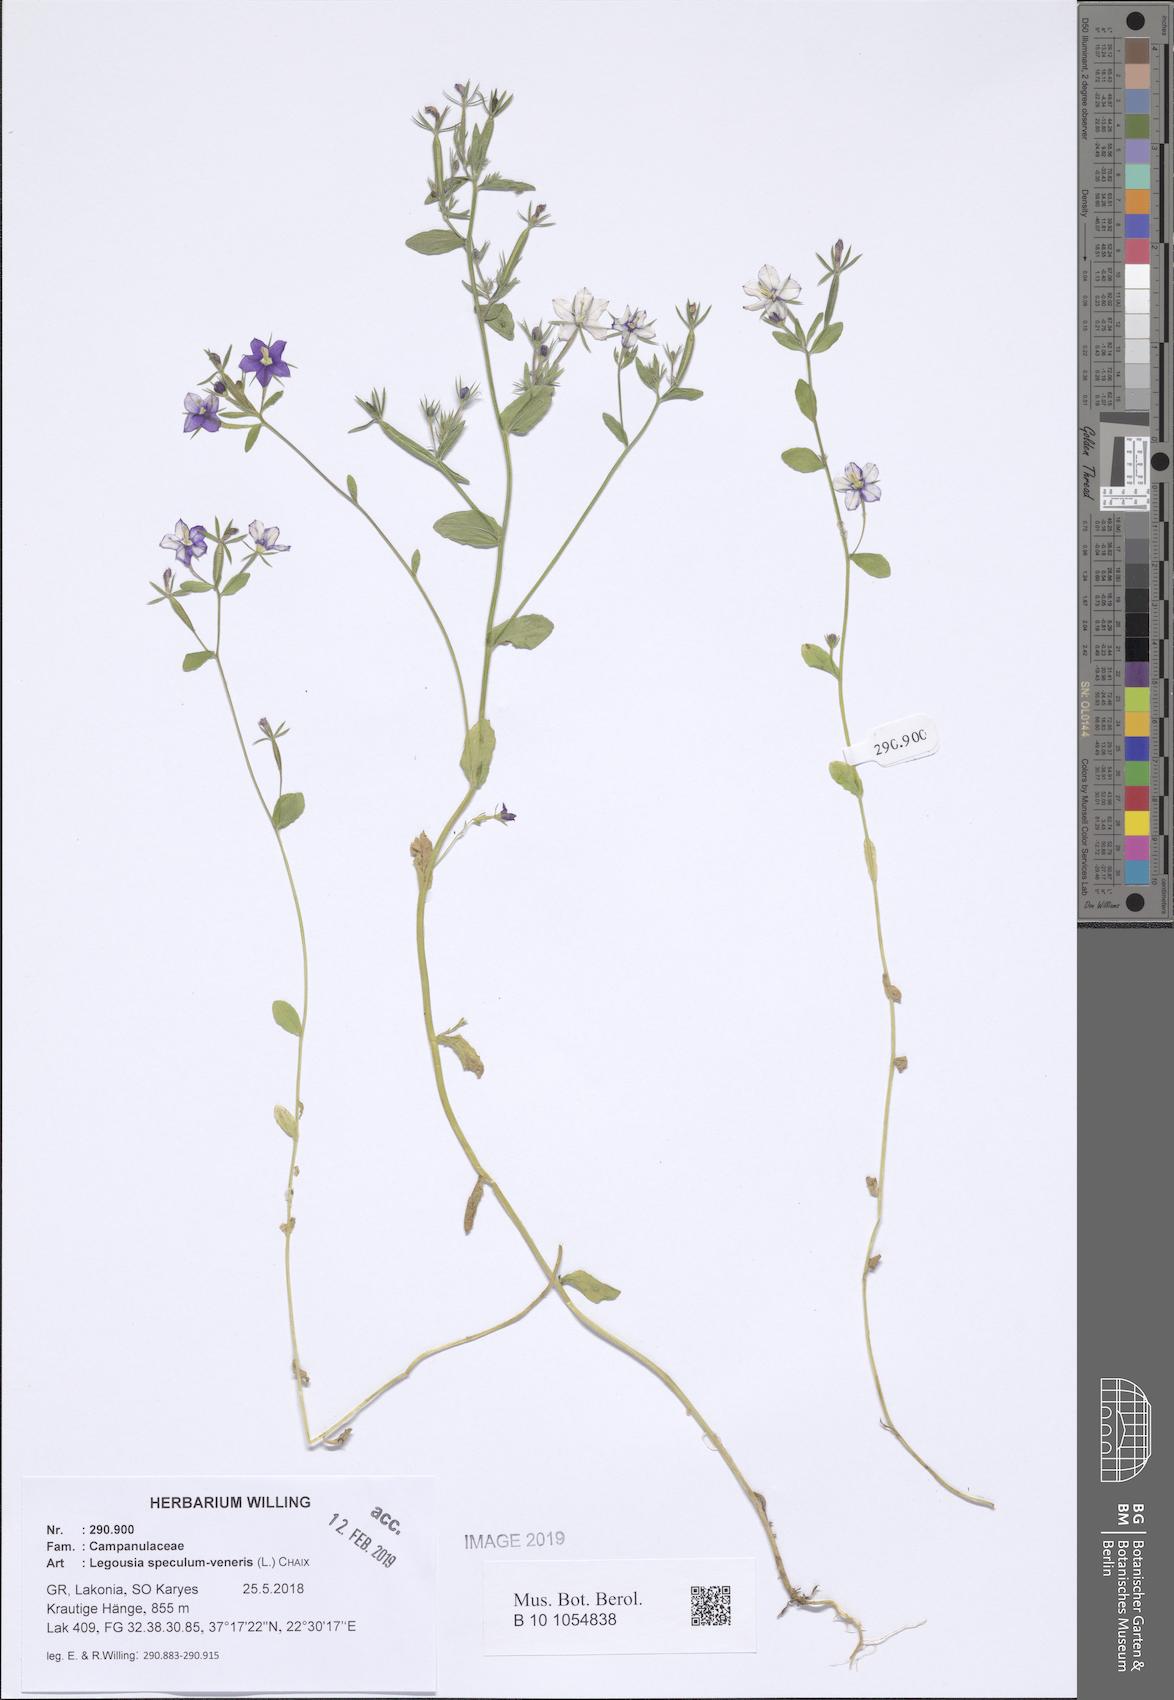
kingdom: Plantae
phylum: Tracheophyta
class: Magnoliopsida
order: Asterales
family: Campanulaceae
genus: Legousia
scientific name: Legousia speculum-veneris
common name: Large venus's-looking-glass
